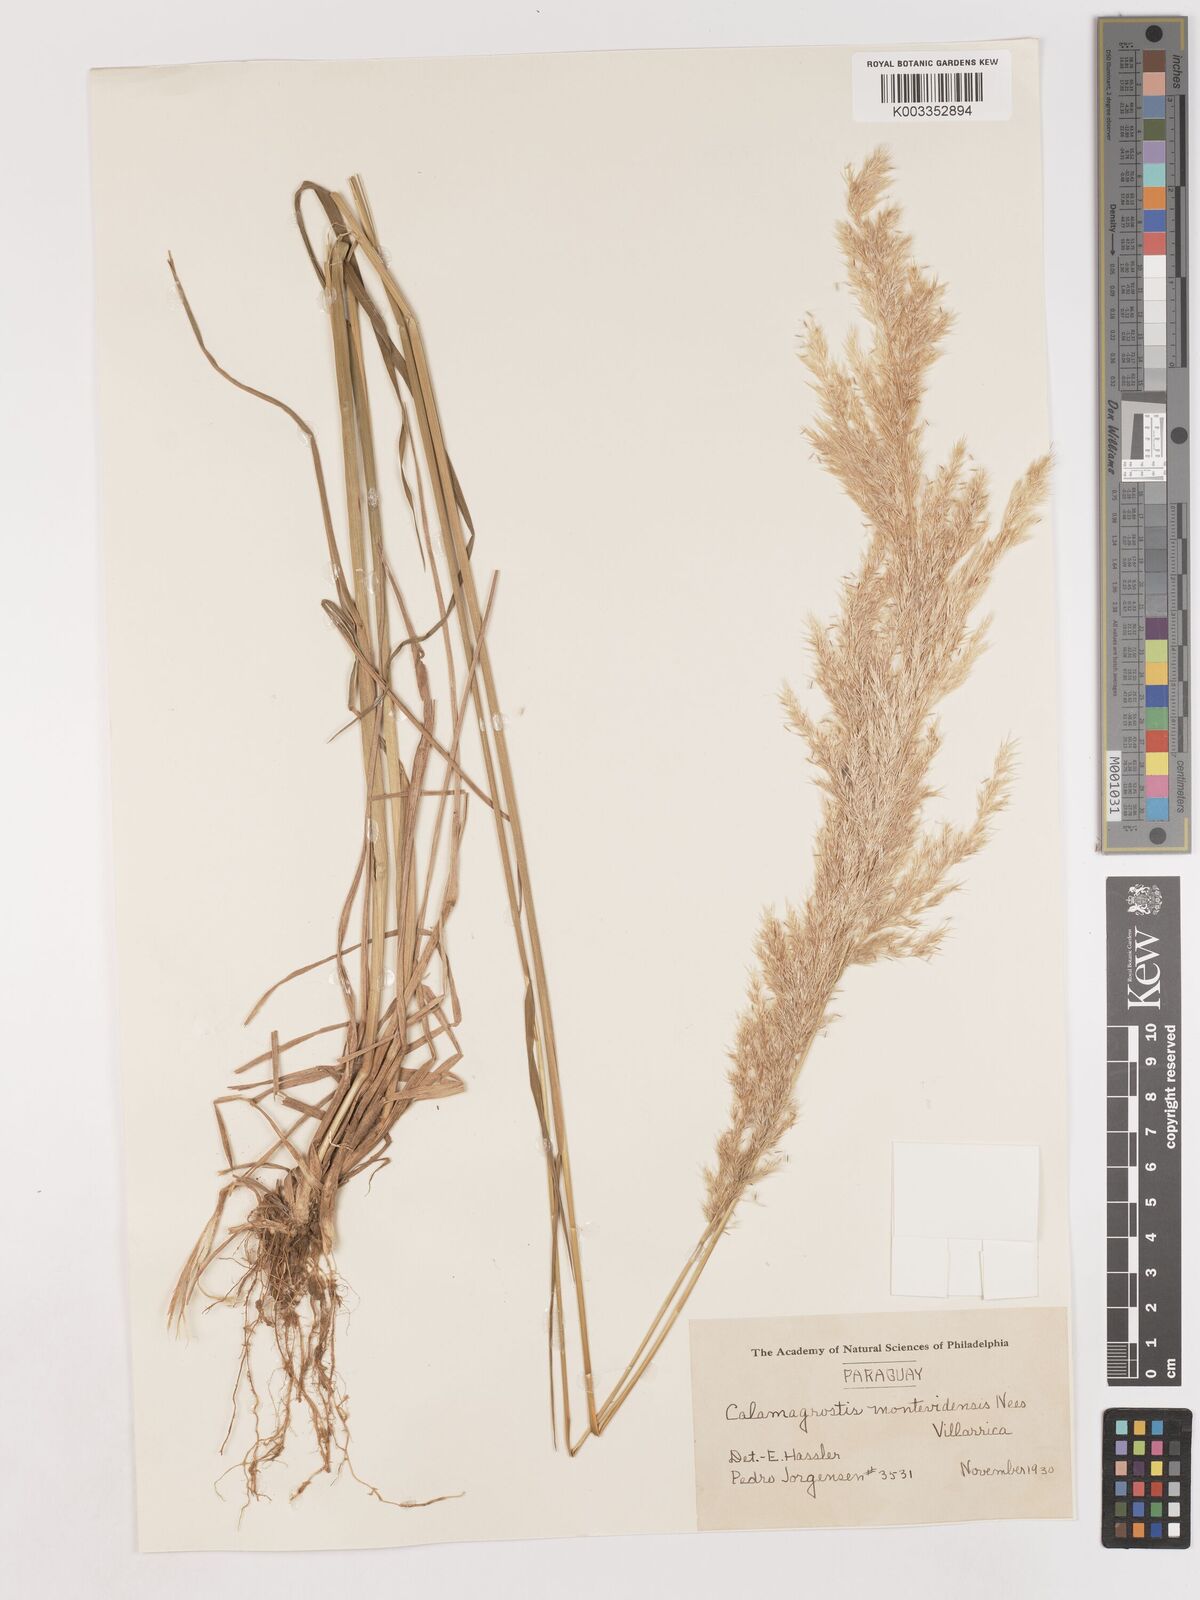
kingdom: Plantae
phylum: Tracheophyta
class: Liliopsida
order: Poales
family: Poaceae
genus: Cinnagrostis
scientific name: Cinnagrostis viridiflavescens
